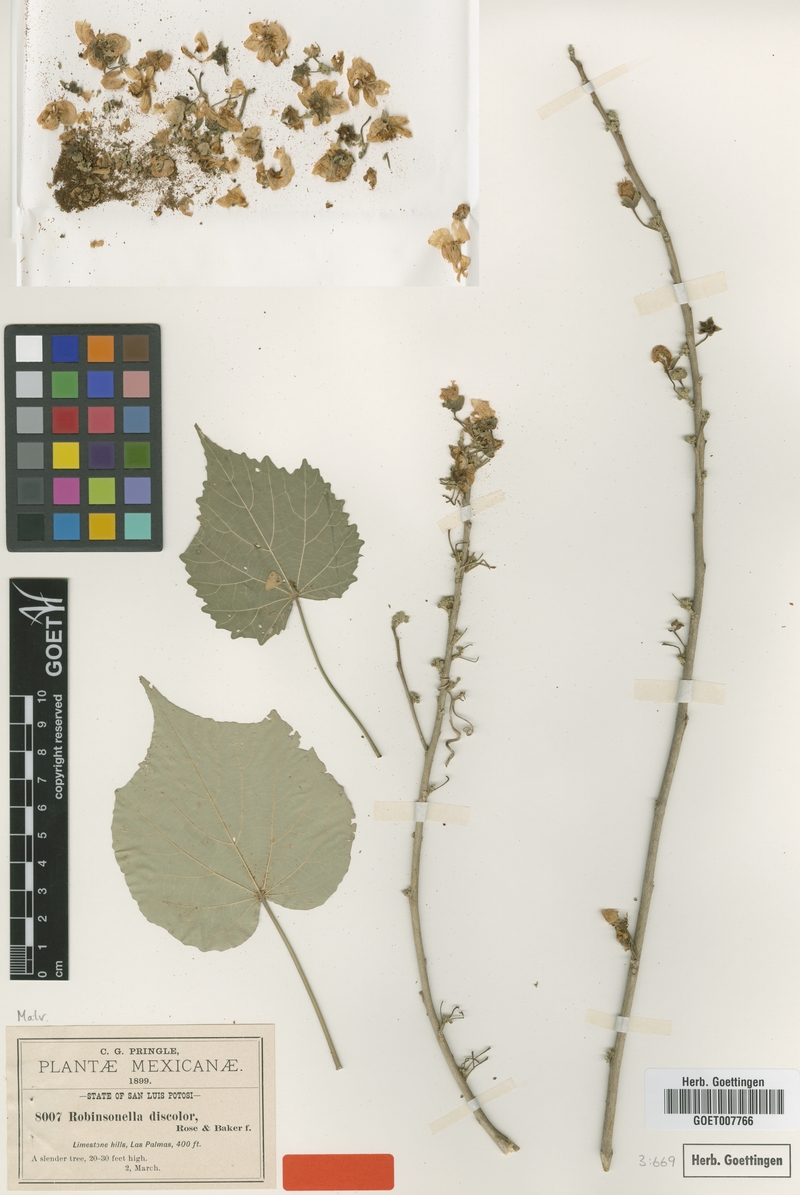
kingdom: Plantae
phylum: Tracheophyta
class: Magnoliopsida
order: Malvales
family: Malvaceae
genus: Robinsonella
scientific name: Robinsonella discolor
